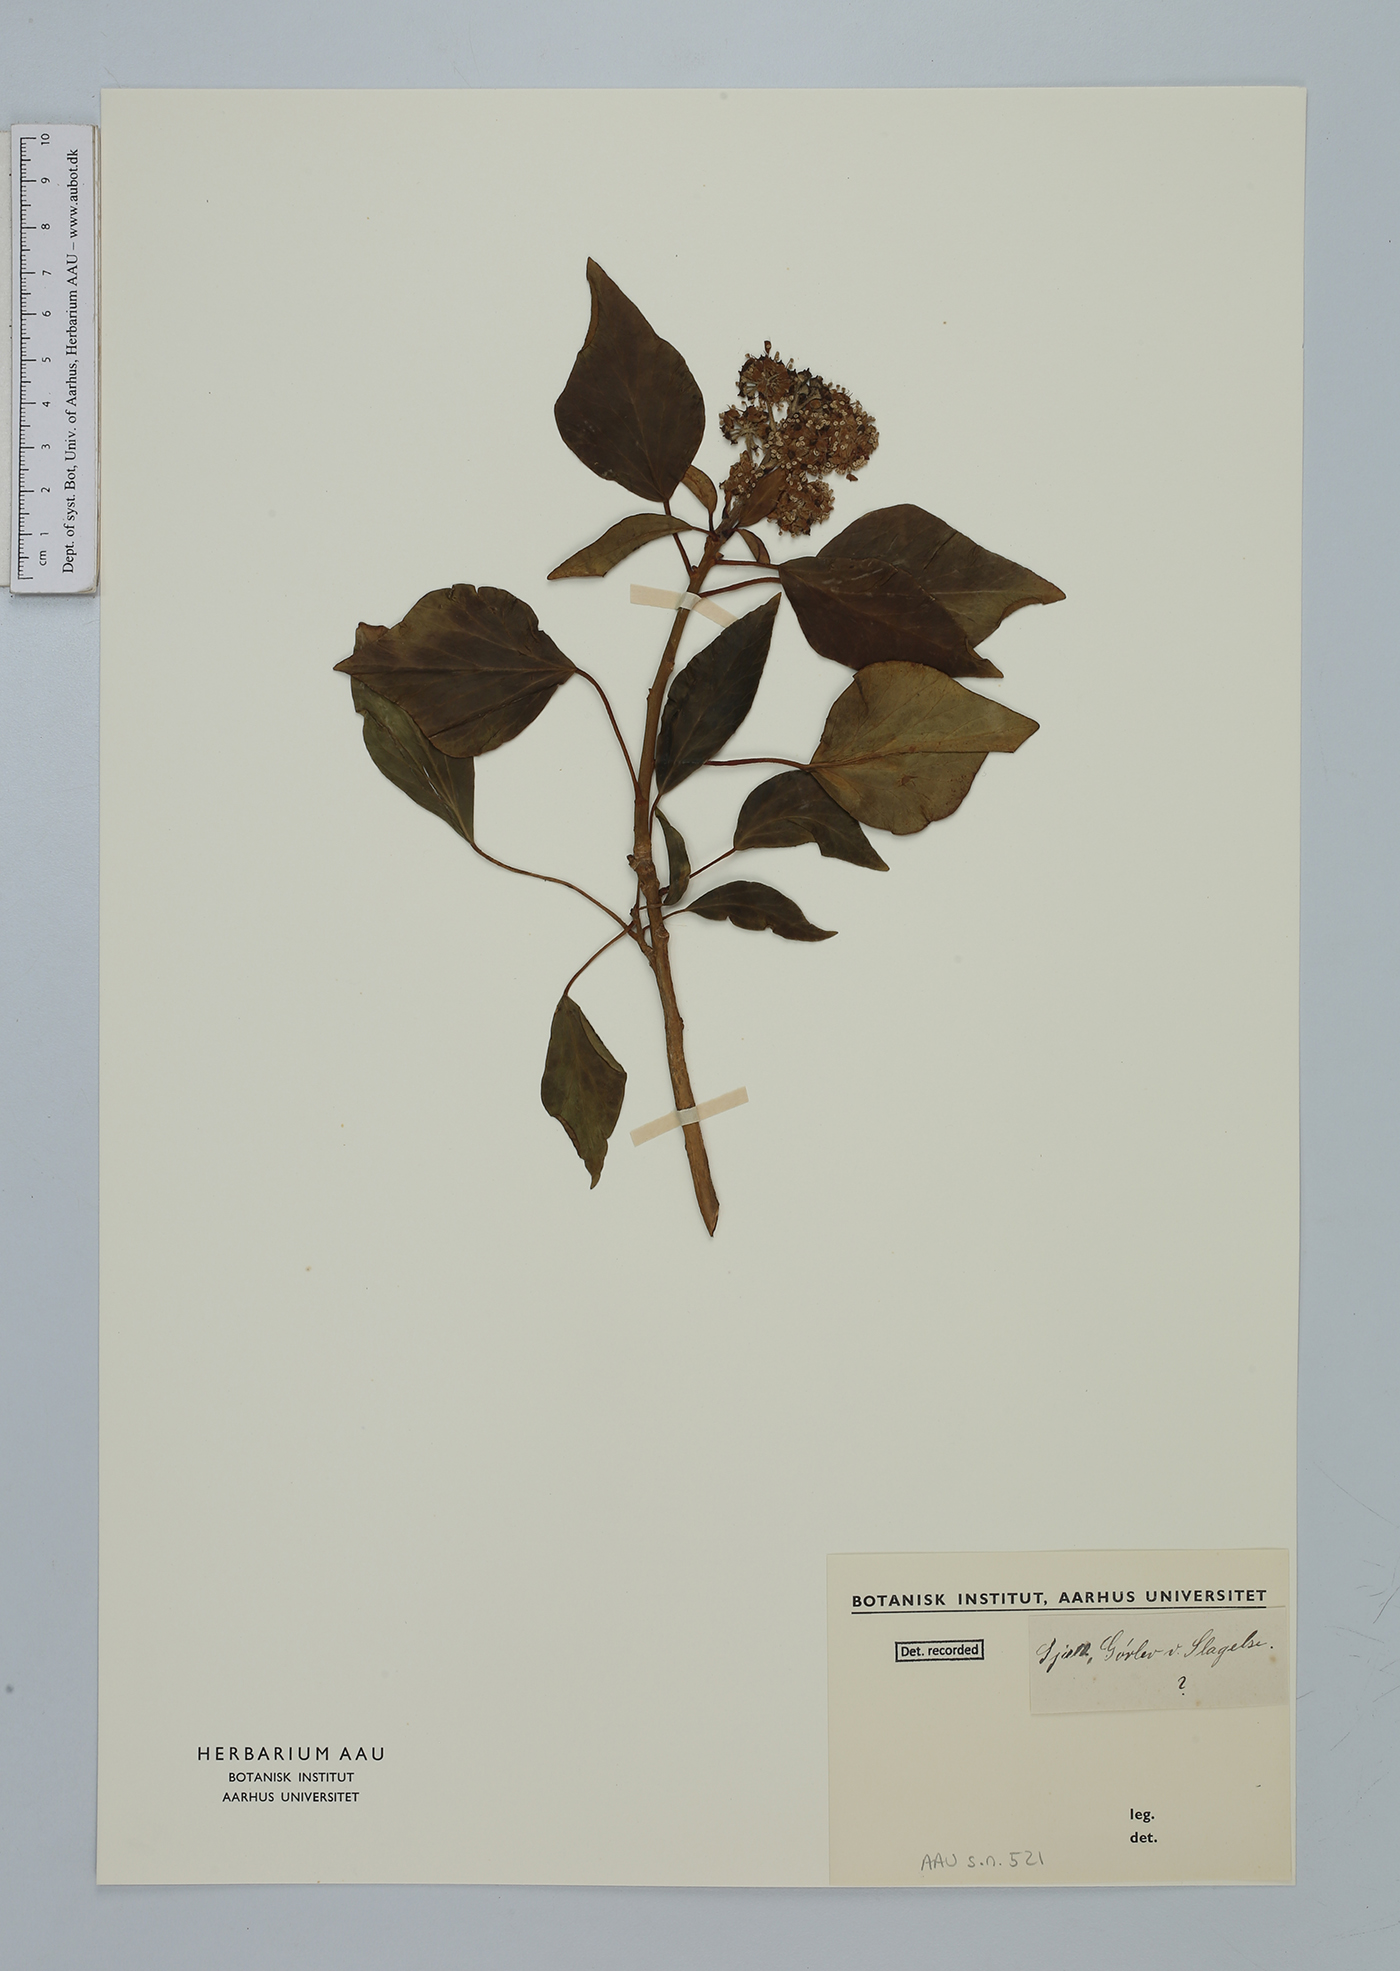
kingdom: Plantae
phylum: Tracheophyta
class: Magnoliopsida
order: Apiales
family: Araliaceae
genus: Hedera
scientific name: Hedera helix
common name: Ivy
